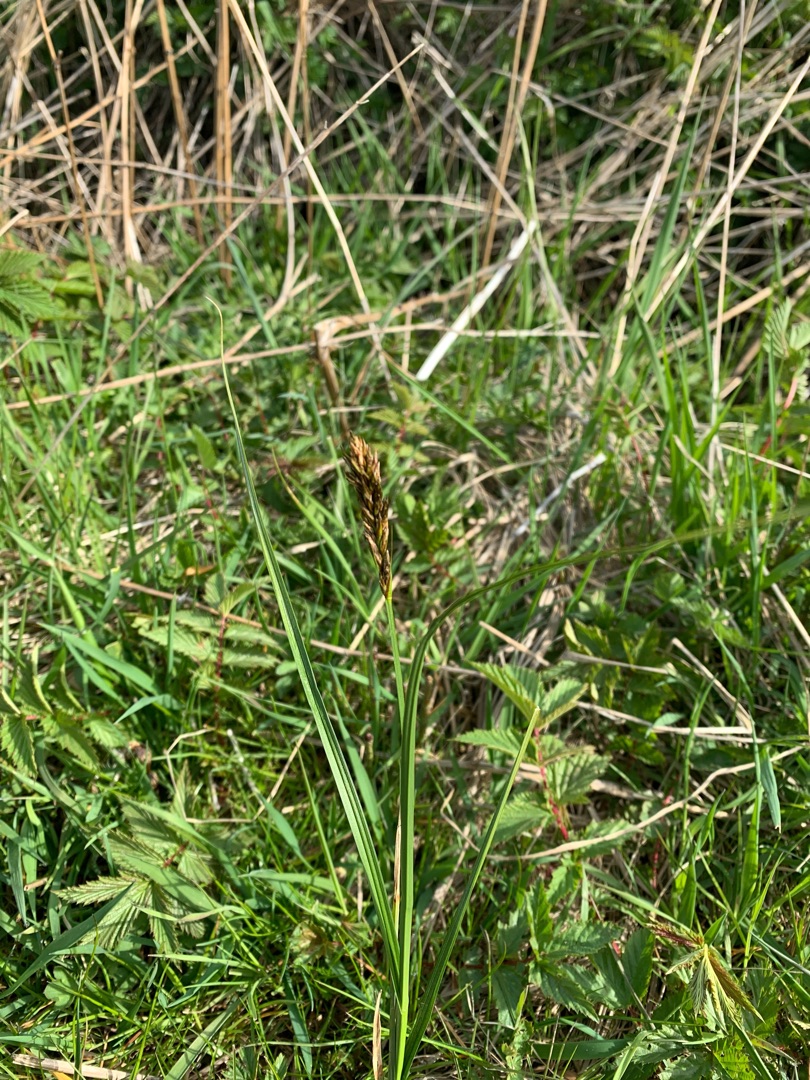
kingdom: Plantae
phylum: Tracheophyta
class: Liliopsida
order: Poales
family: Cyperaceae
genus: Carex
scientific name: Carex disticha
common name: Toradet star
